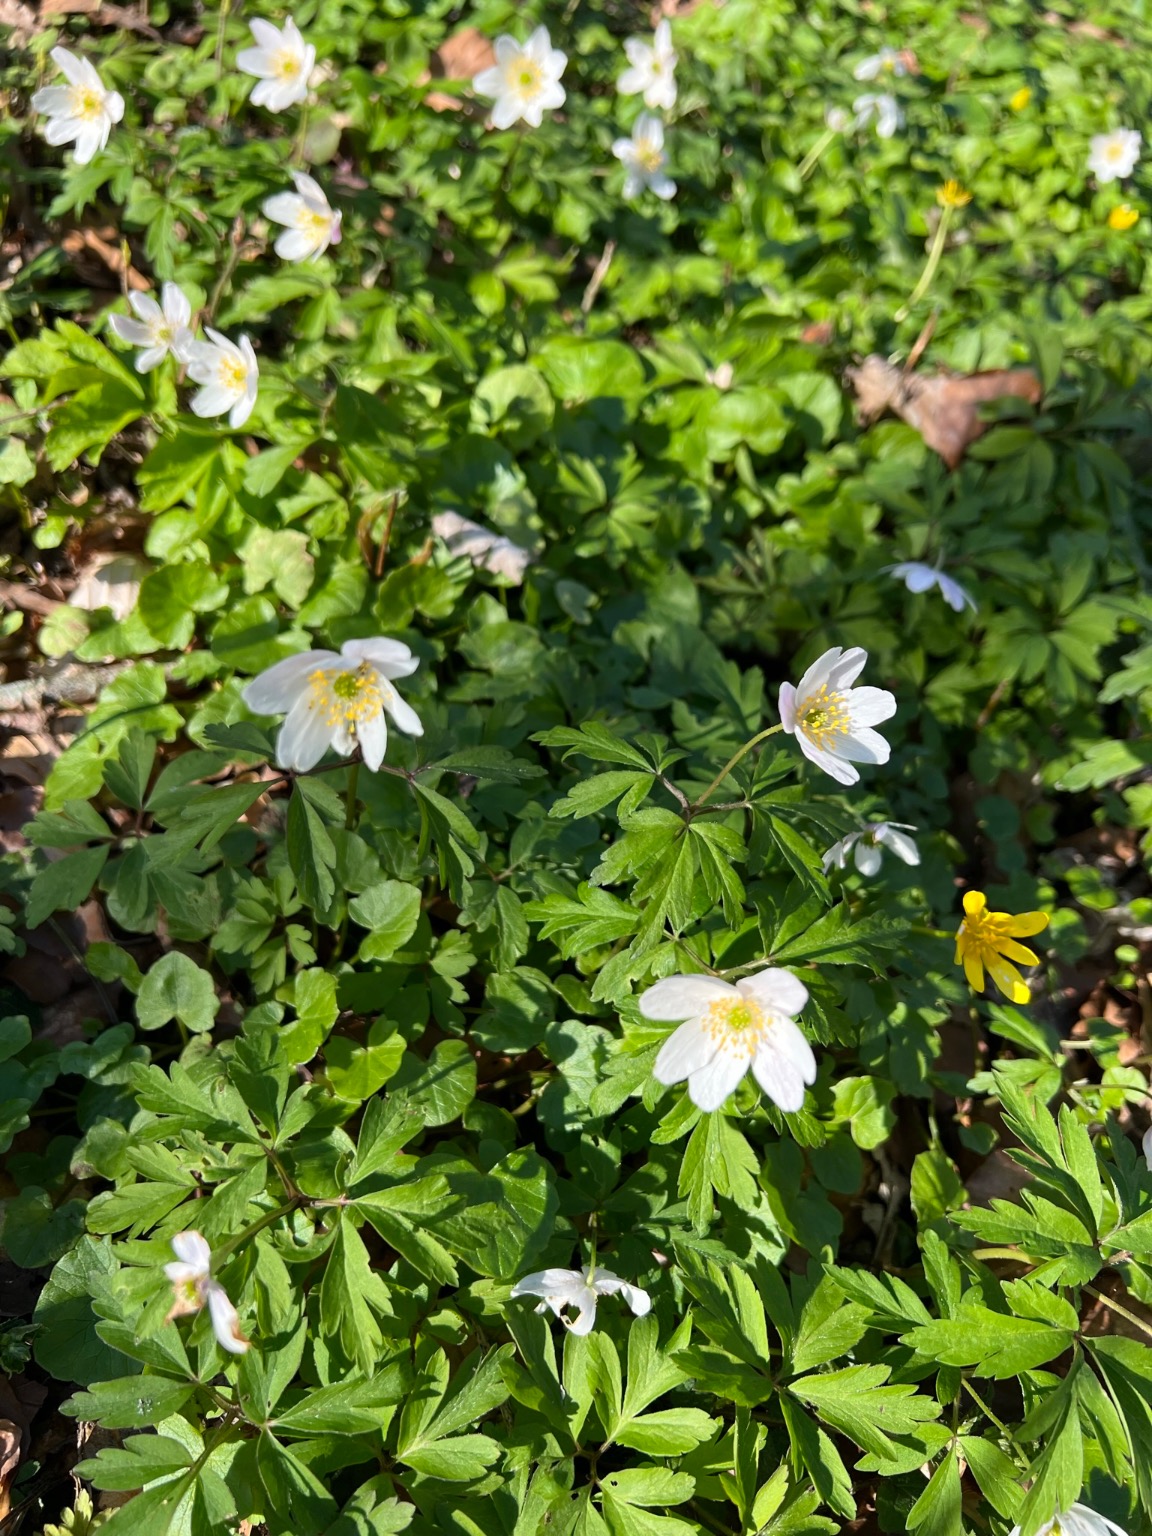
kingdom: Plantae
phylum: Tracheophyta
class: Magnoliopsida
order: Ranunculales
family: Ranunculaceae
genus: Anemone
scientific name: Anemone nemorosa
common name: Hvid anemone
